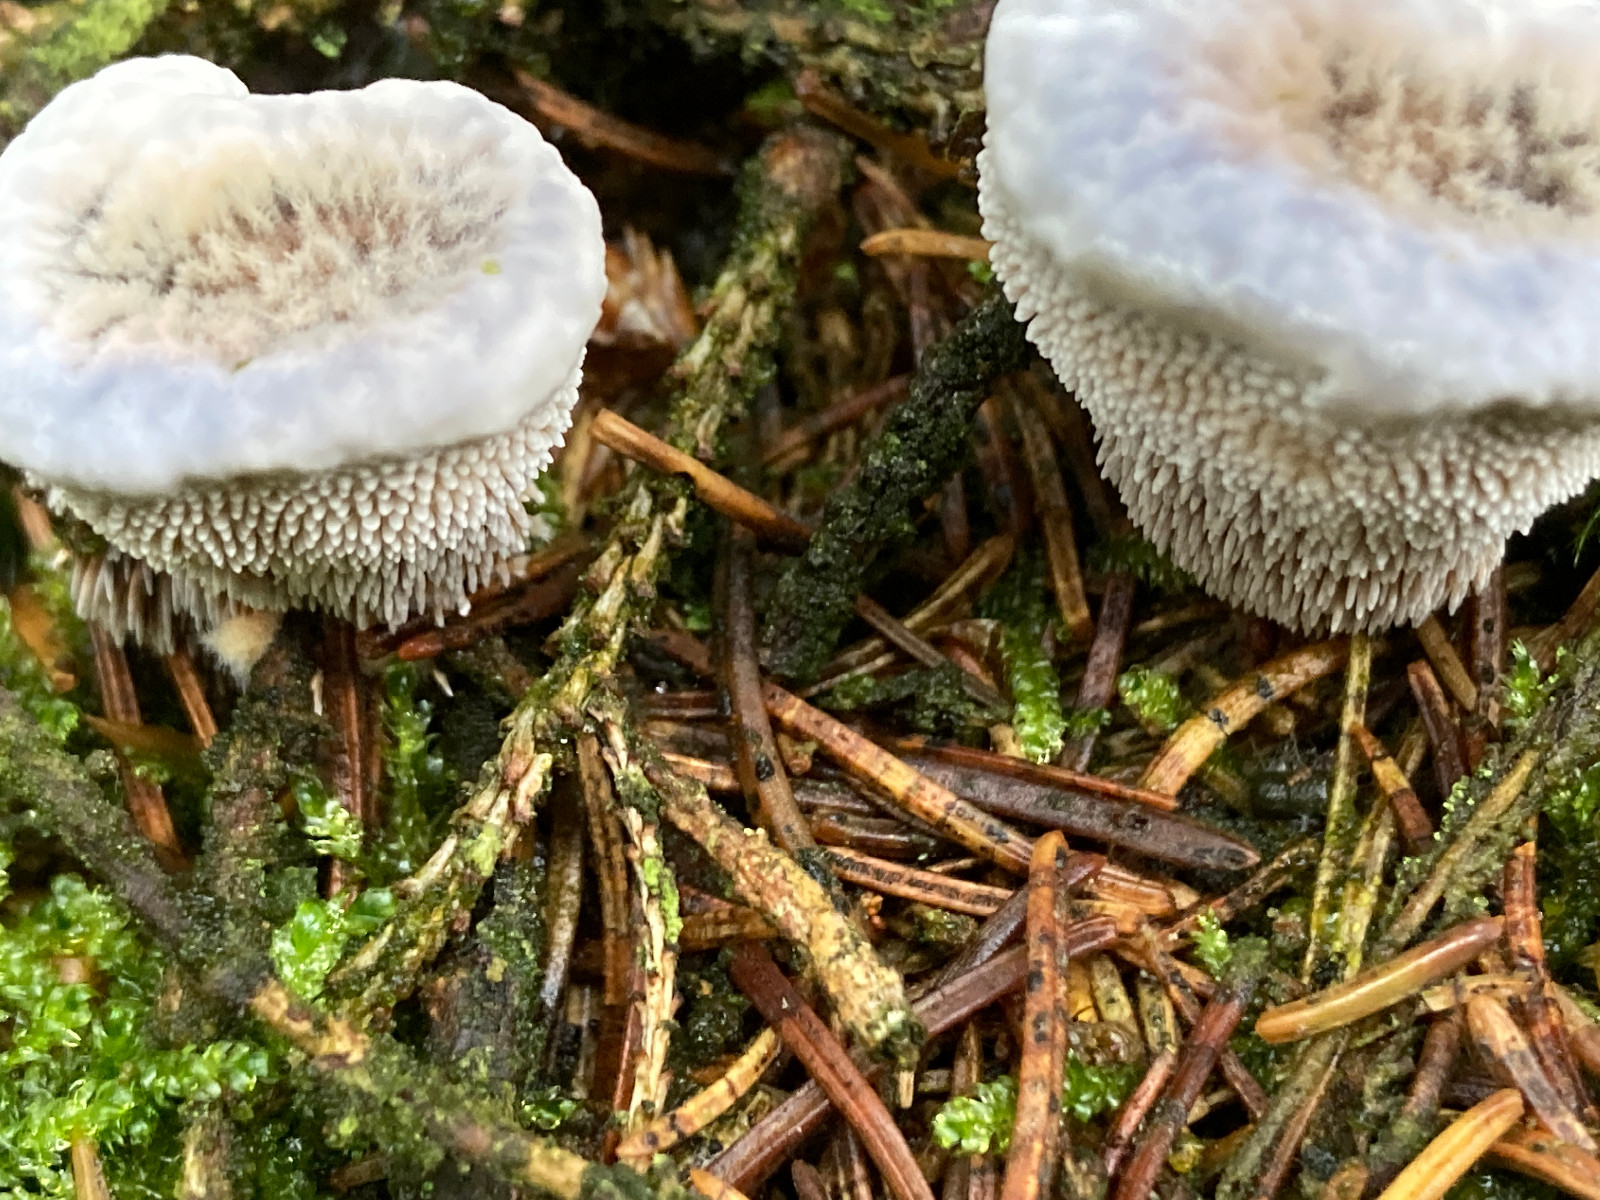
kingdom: Fungi
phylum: Basidiomycota
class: Agaricomycetes
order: Thelephorales
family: Bankeraceae
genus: Hydnellum
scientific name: Hydnellum caeruleum
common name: blålig korkpigsvamp
